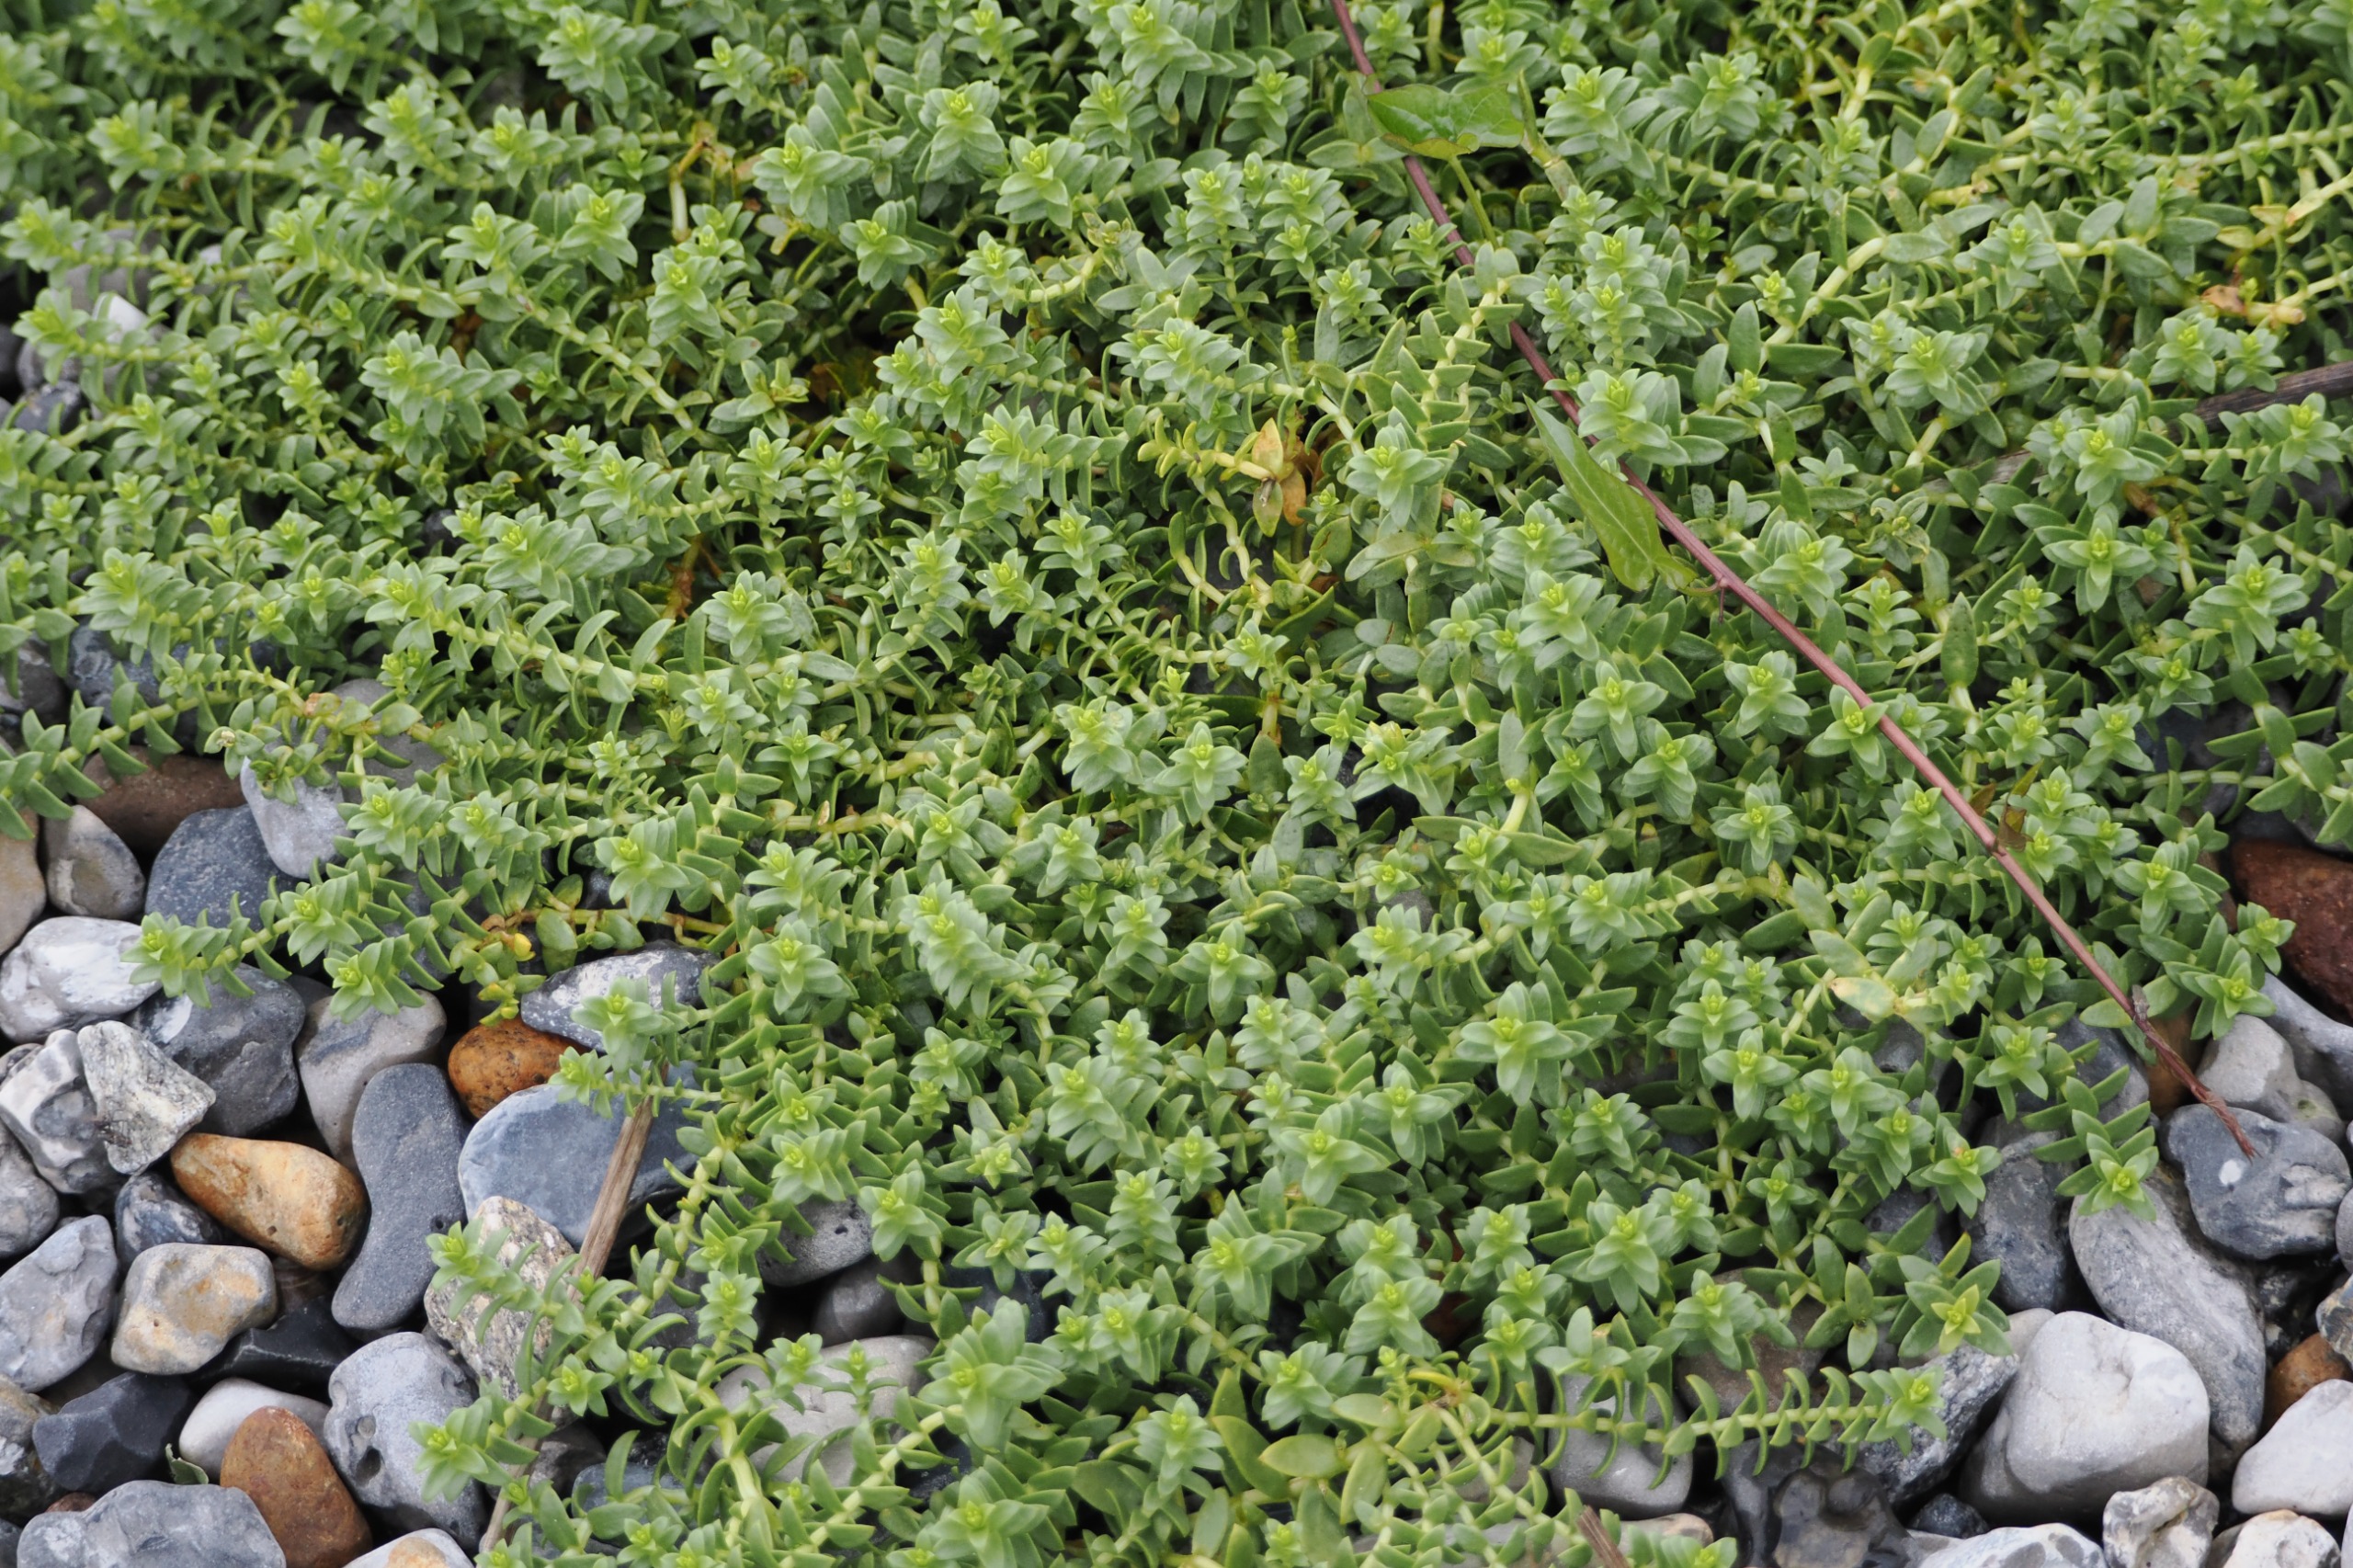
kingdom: Plantae
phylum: Tracheophyta
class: Magnoliopsida
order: Caryophyllales
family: Caryophyllaceae
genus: Honckenya
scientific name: Honckenya peploides
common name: Strandarve
